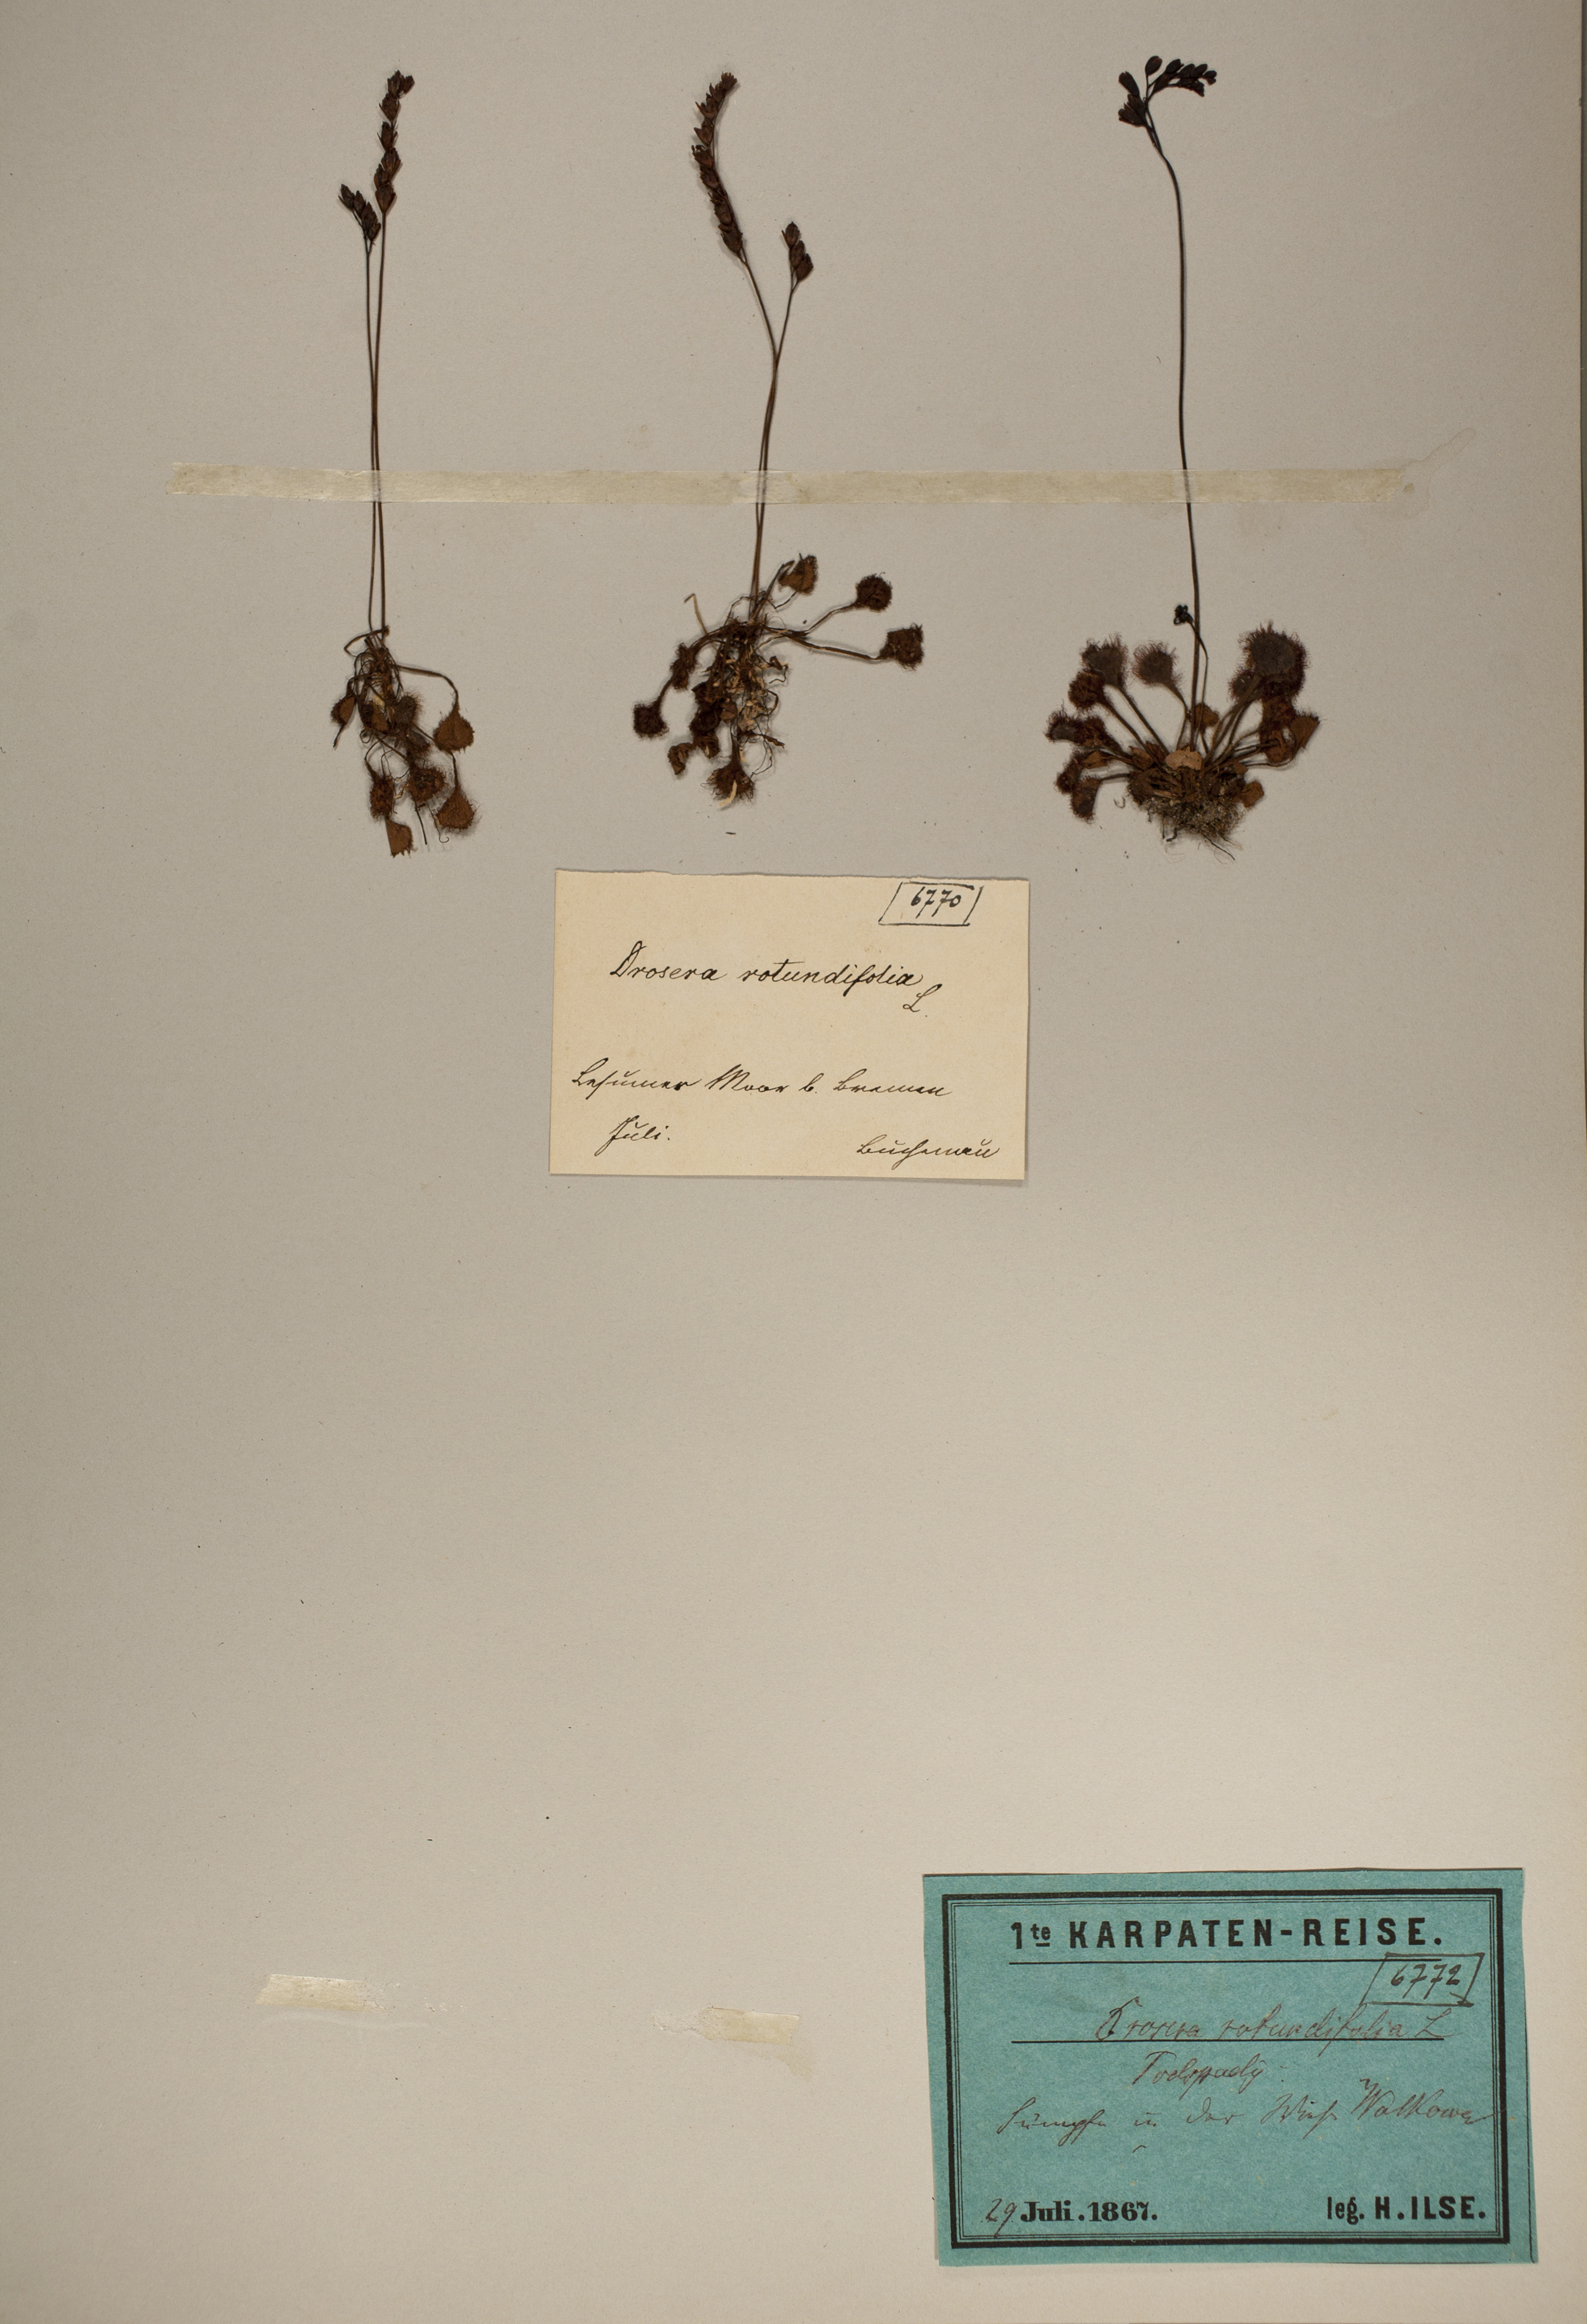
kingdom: Plantae
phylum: Tracheophyta
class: Magnoliopsida
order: Caryophyllales
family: Droseraceae
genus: Drosera
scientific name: Drosera rotundifolia
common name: Round-leaved sundew
